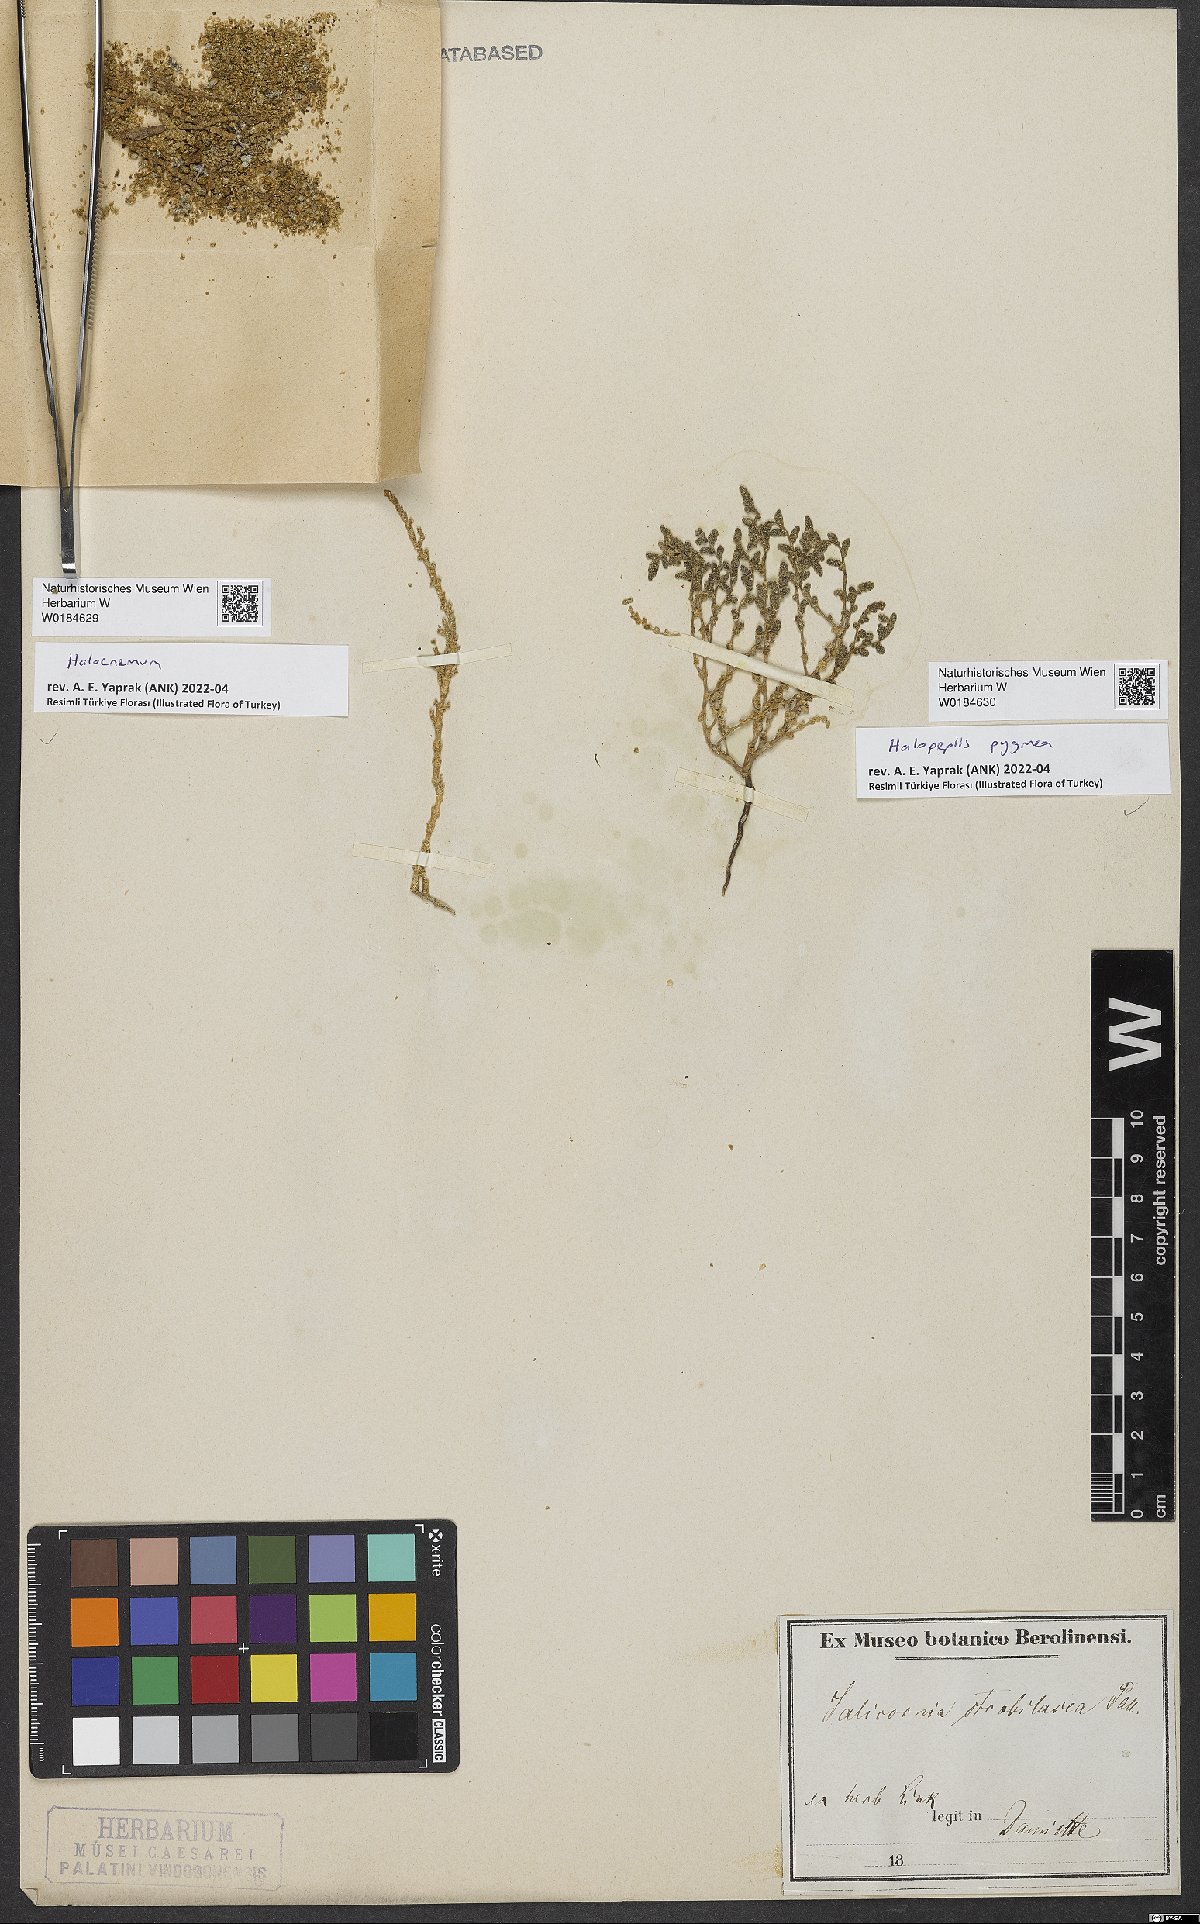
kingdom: Plantae
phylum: Tracheophyta
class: Magnoliopsida
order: Caryophyllales
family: Amaranthaceae
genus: Halocnemum
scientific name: Halocnemum
